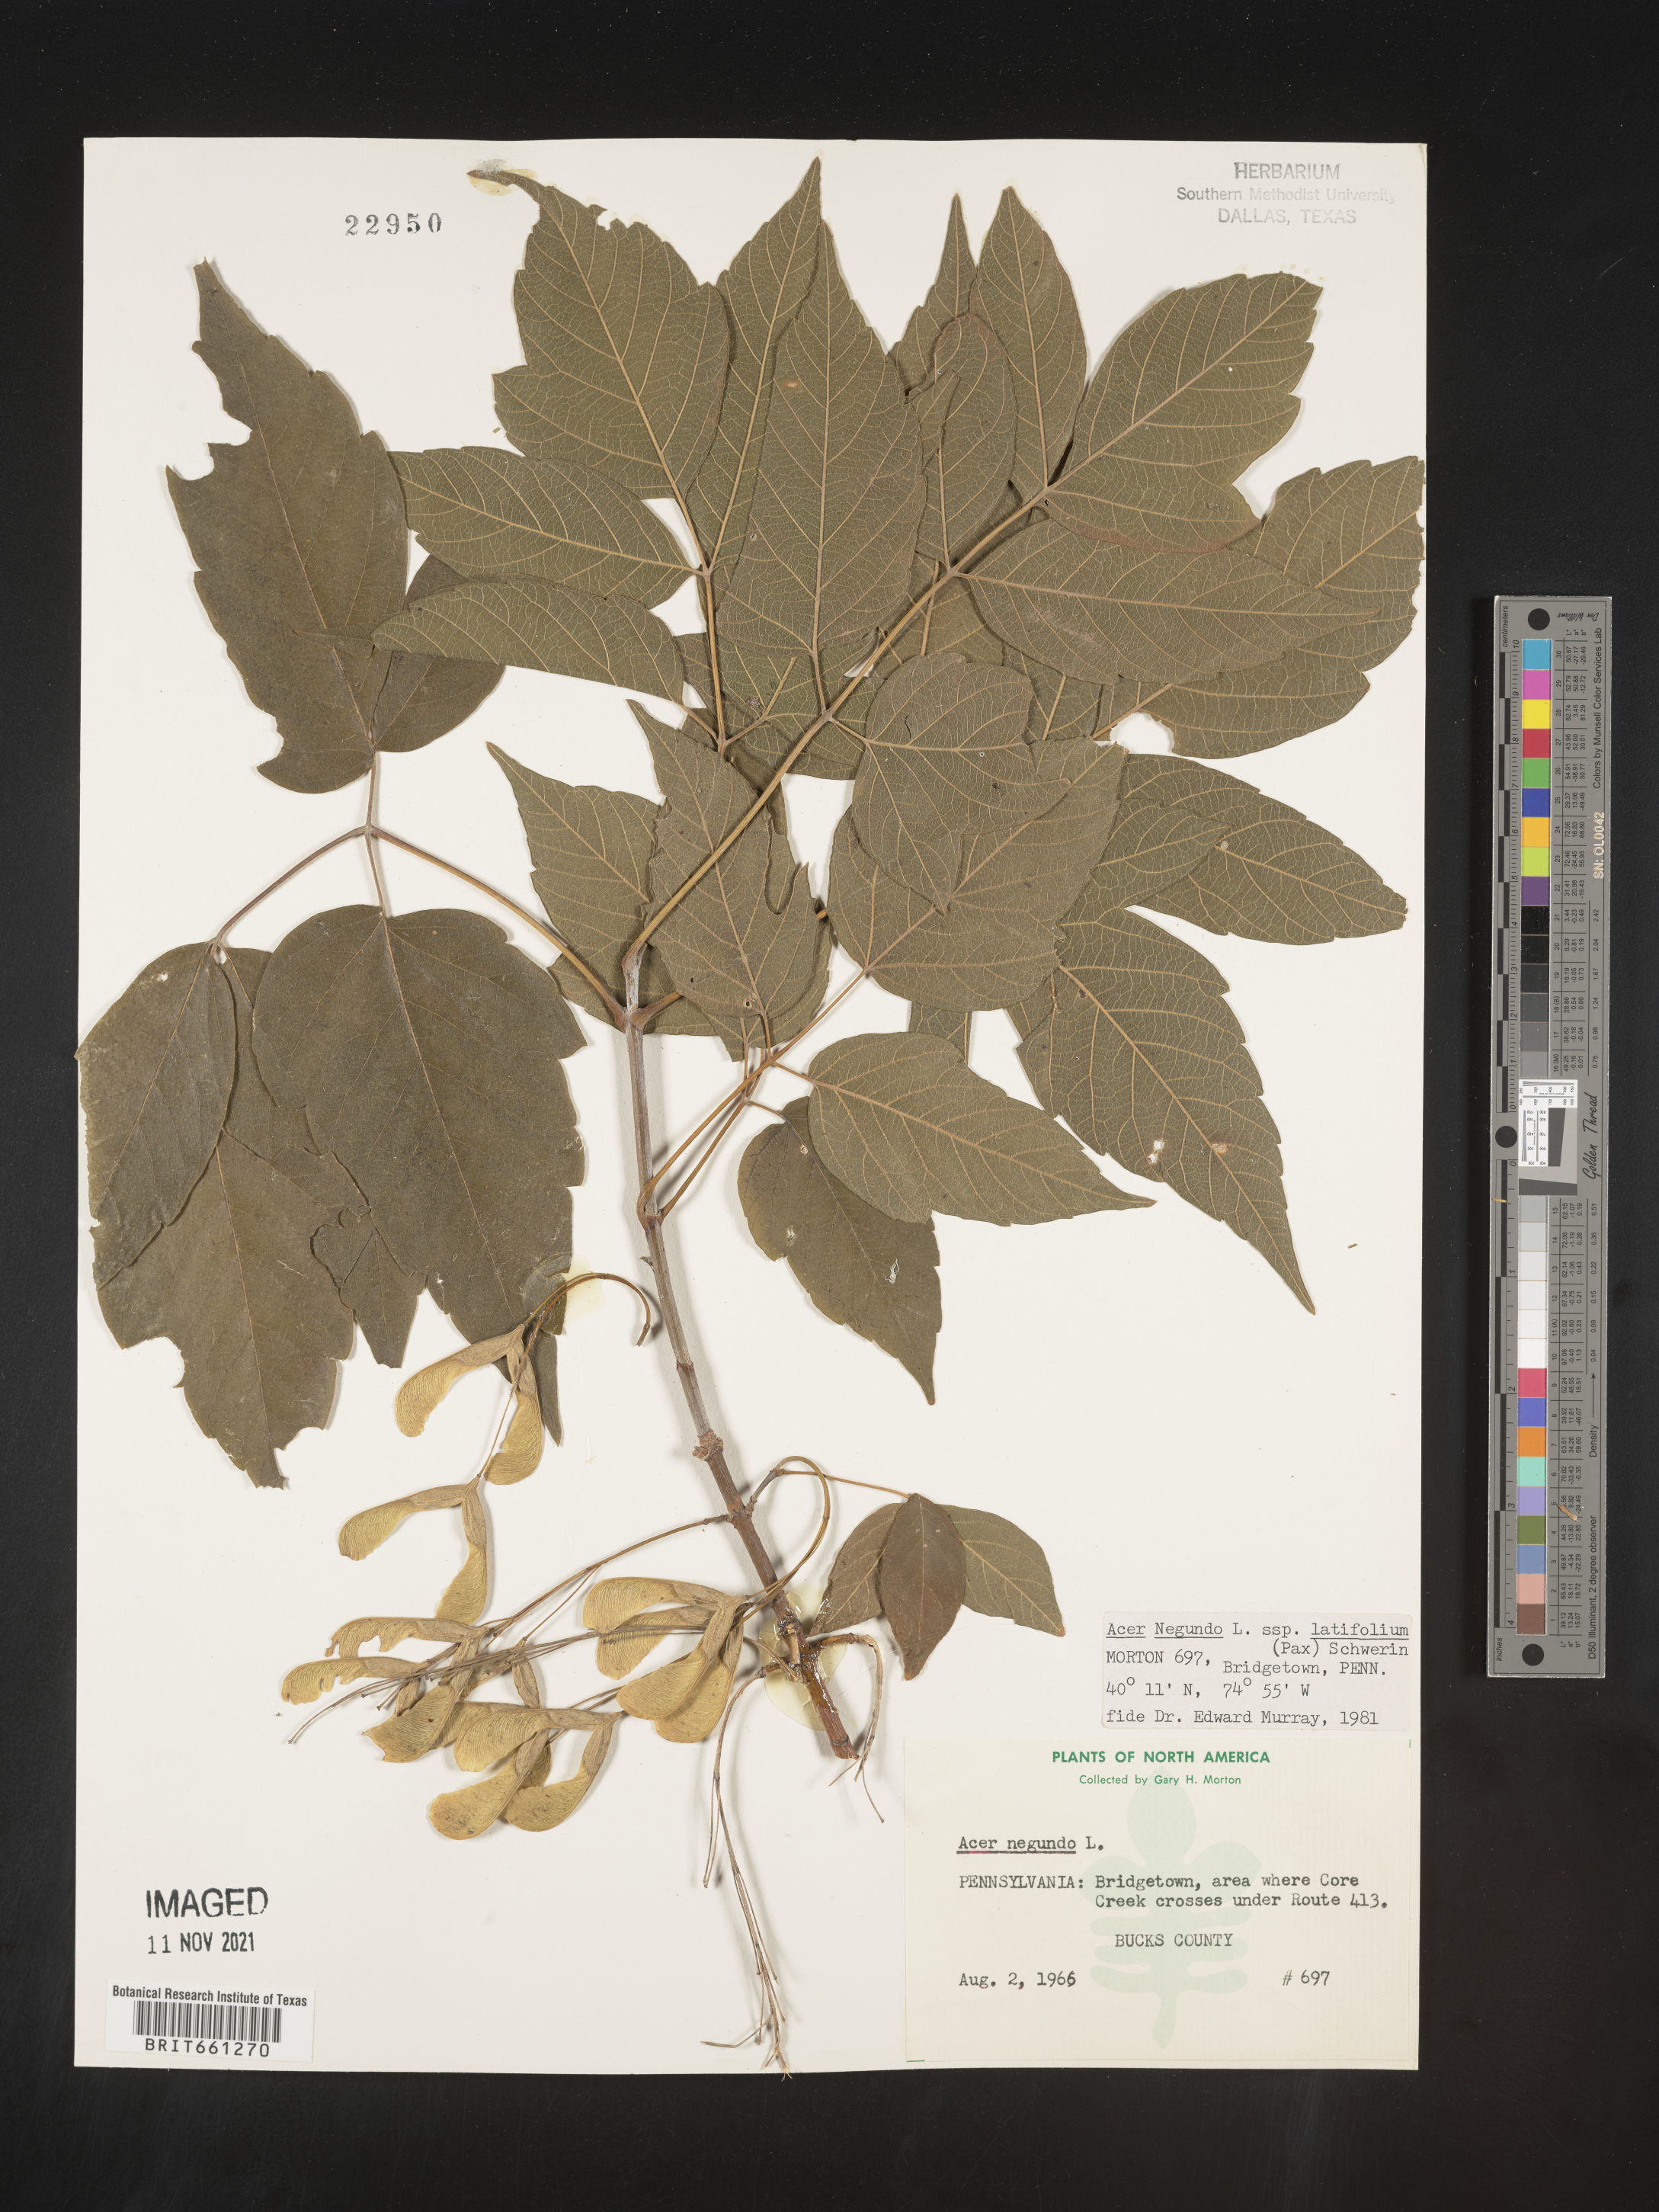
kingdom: Plantae
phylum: Tracheophyta
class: Magnoliopsida
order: Sapindales
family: Sapindaceae
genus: Acer
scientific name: Acer negundo
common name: Ashleaf maple
